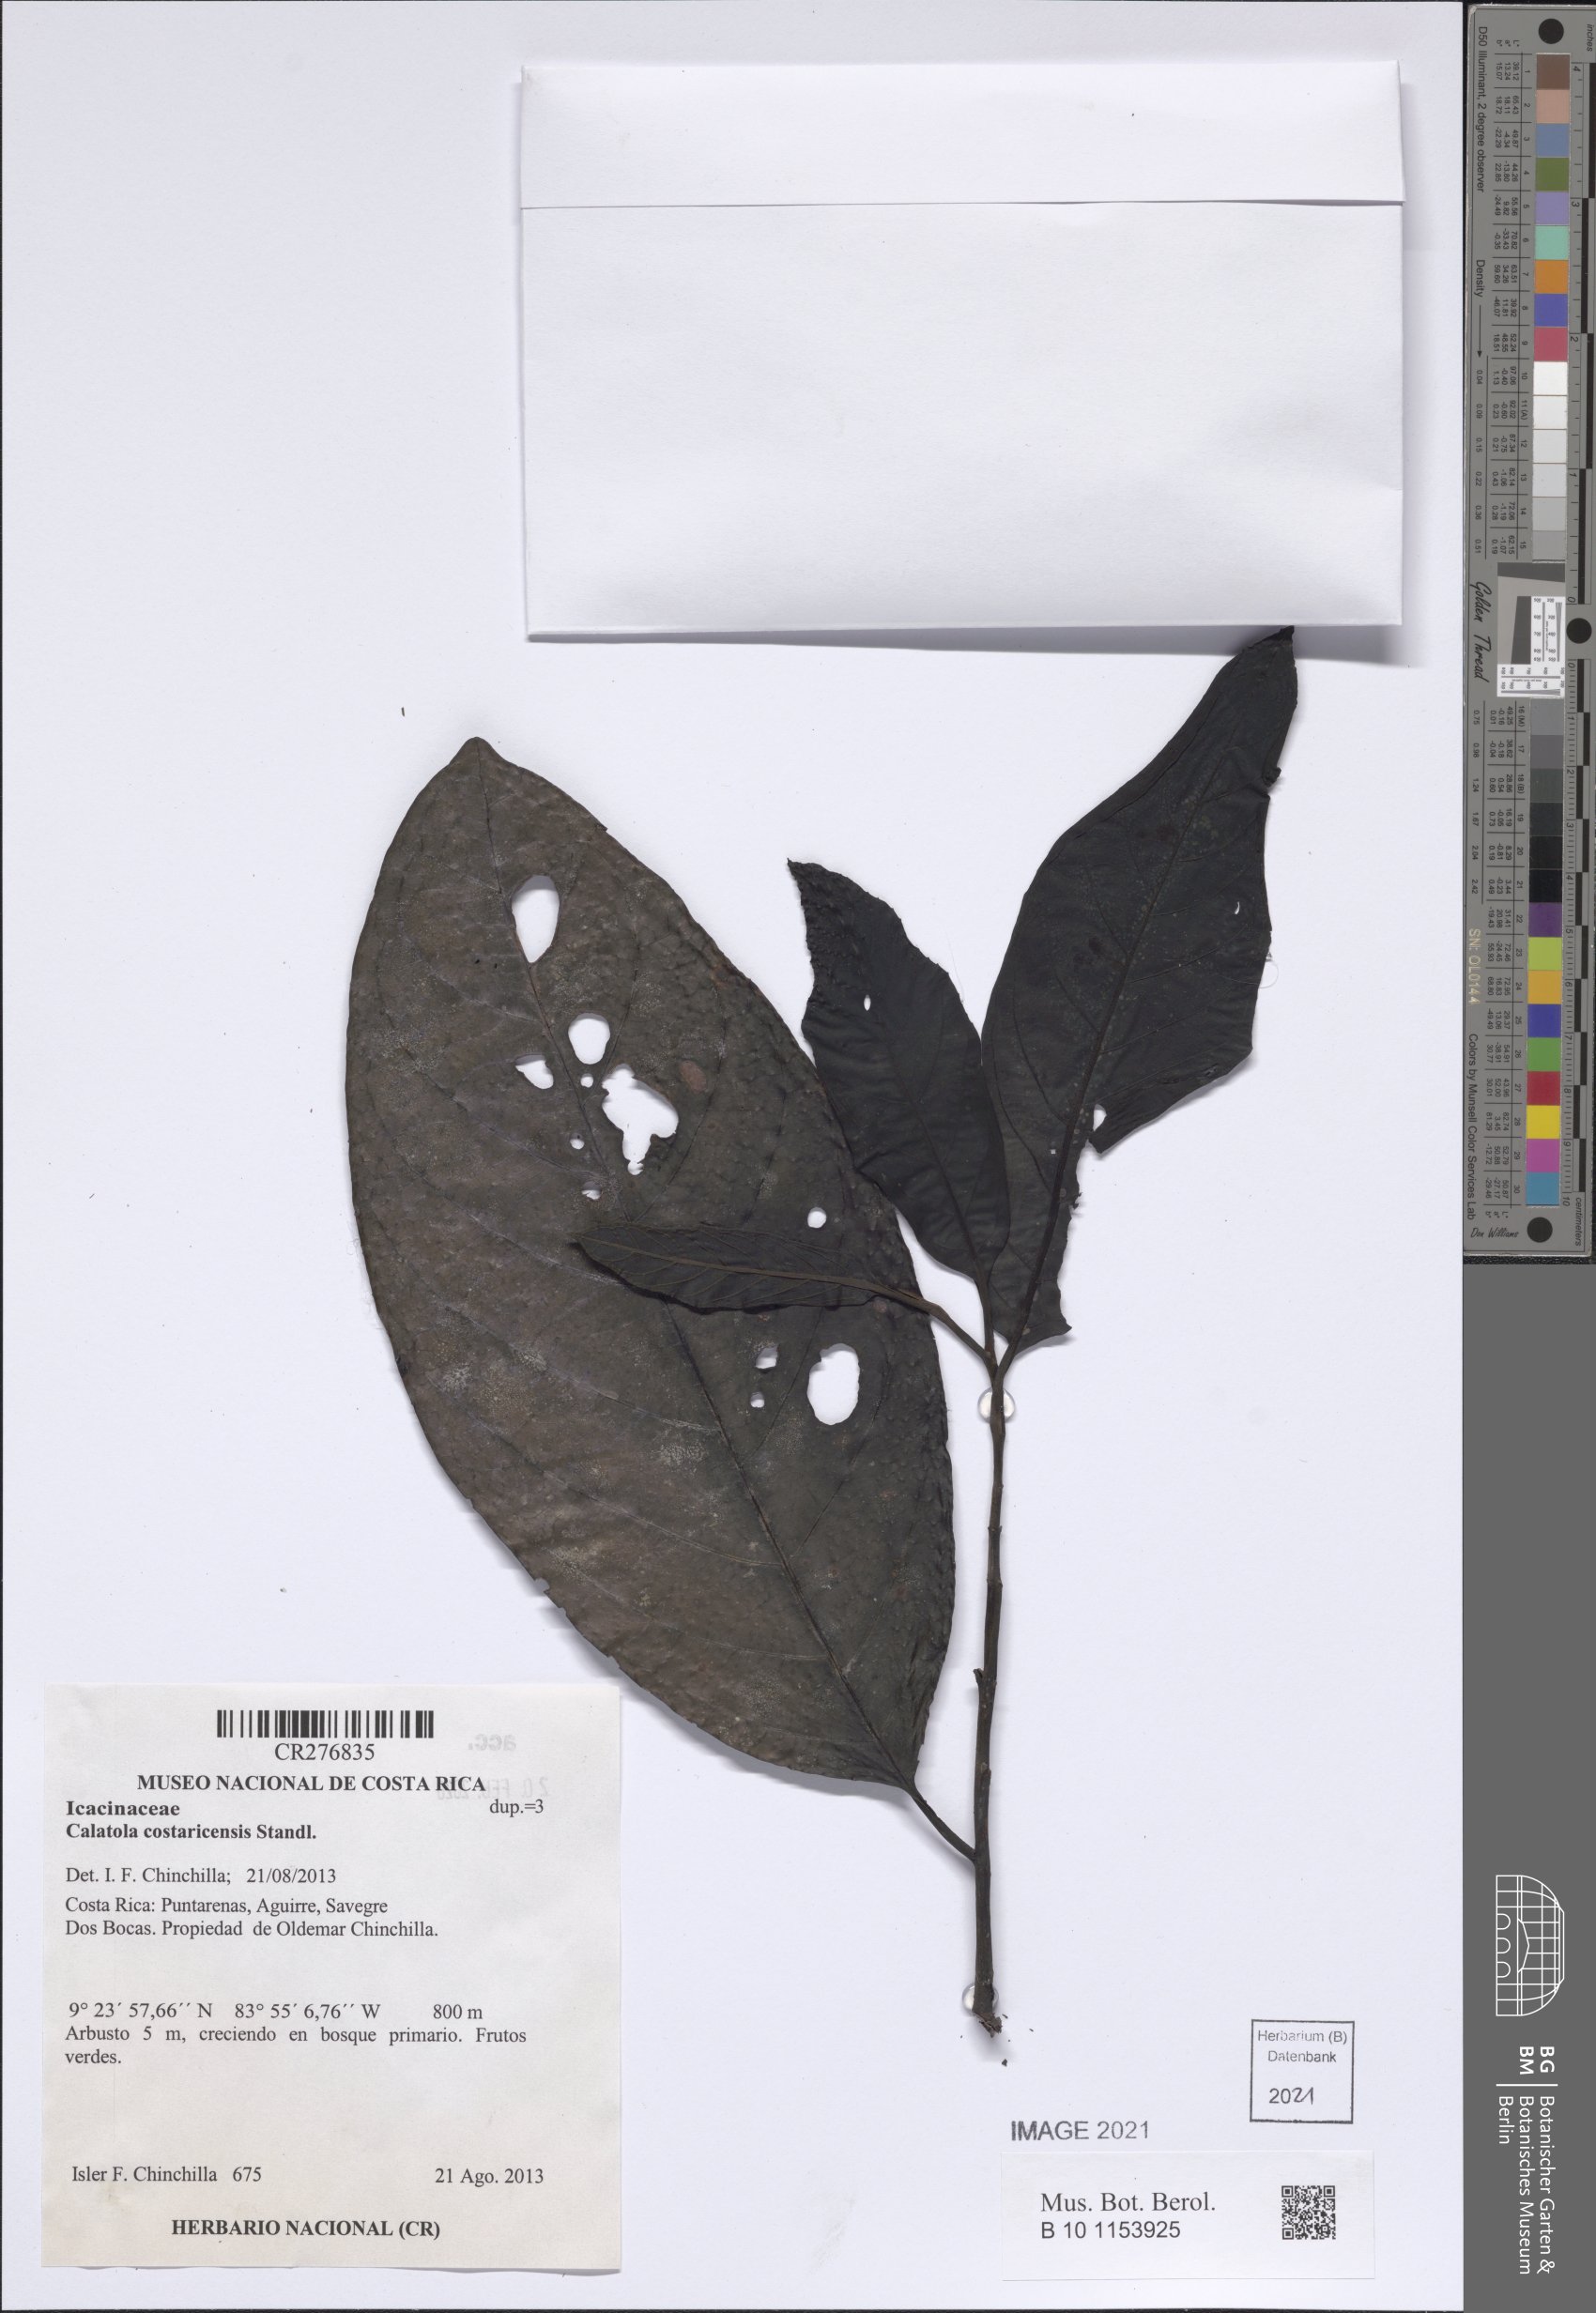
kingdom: Plantae
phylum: Tracheophyta
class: Magnoliopsida
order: Metteniusales
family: Metteniusaceae
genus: Calatola
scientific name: Calatola costaricensis
